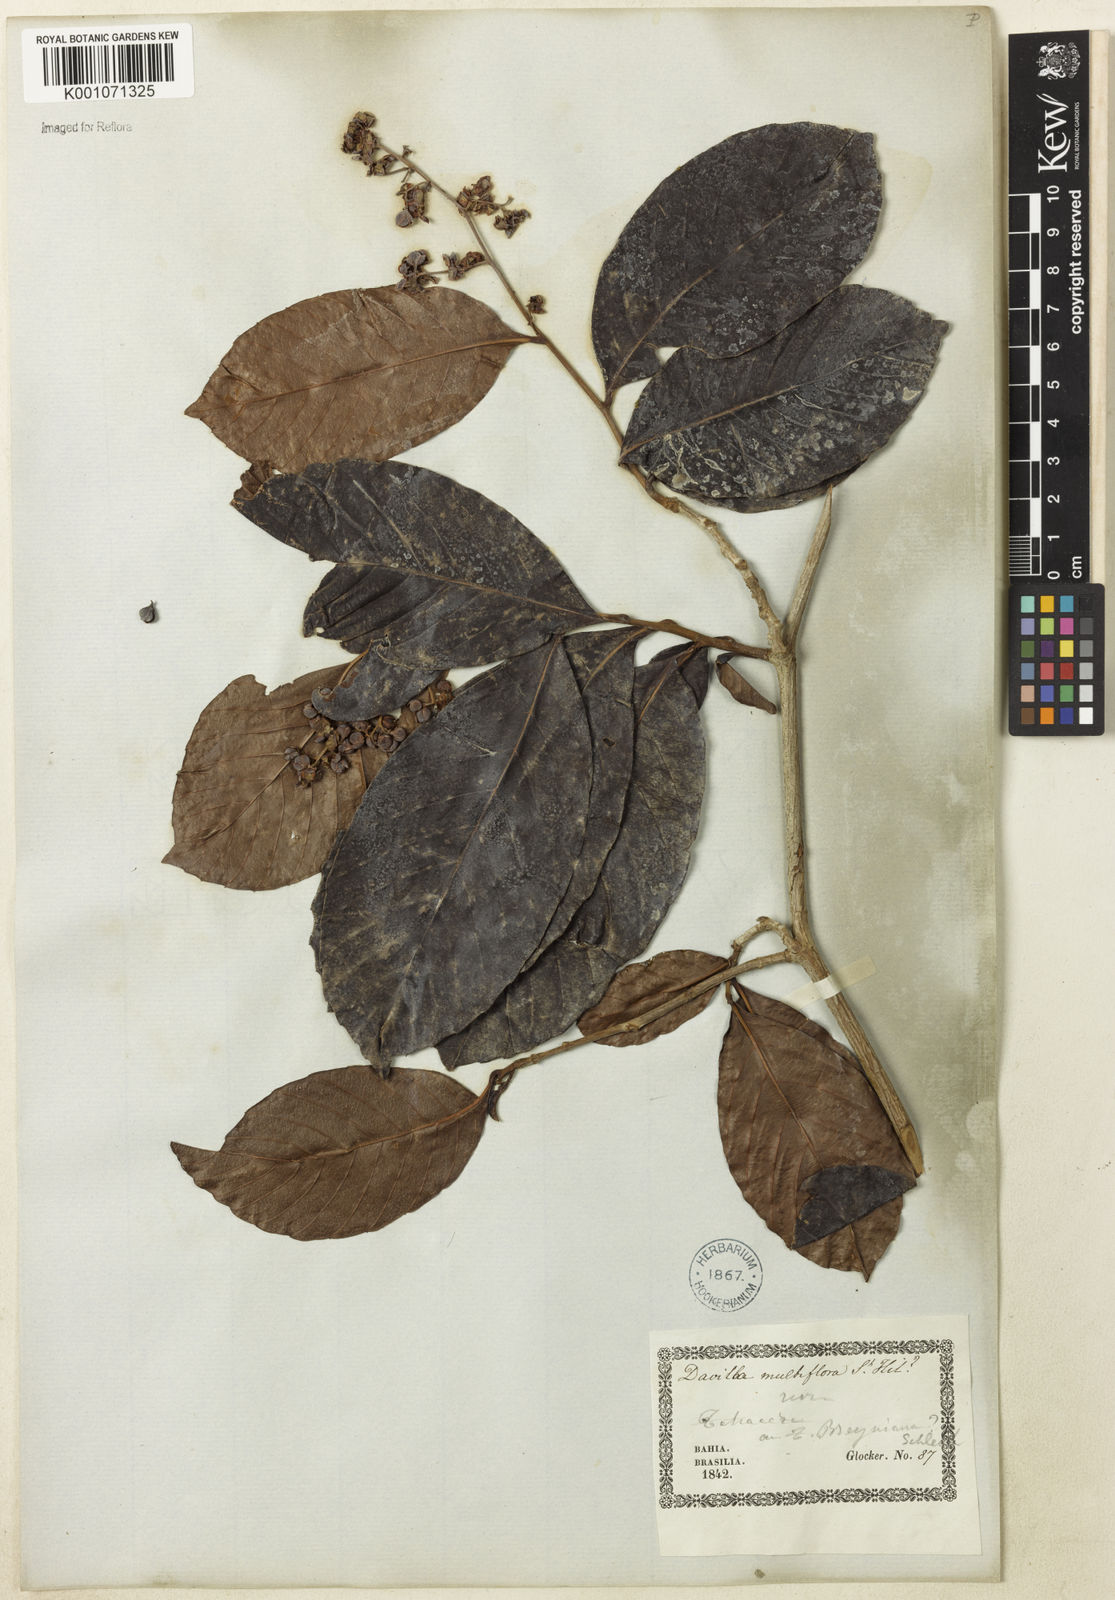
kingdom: Plantae
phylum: Tracheophyta
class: Magnoliopsida
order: Dilleniales
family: Dilleniaceae
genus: Tetracera
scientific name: Tetracera breyniana
